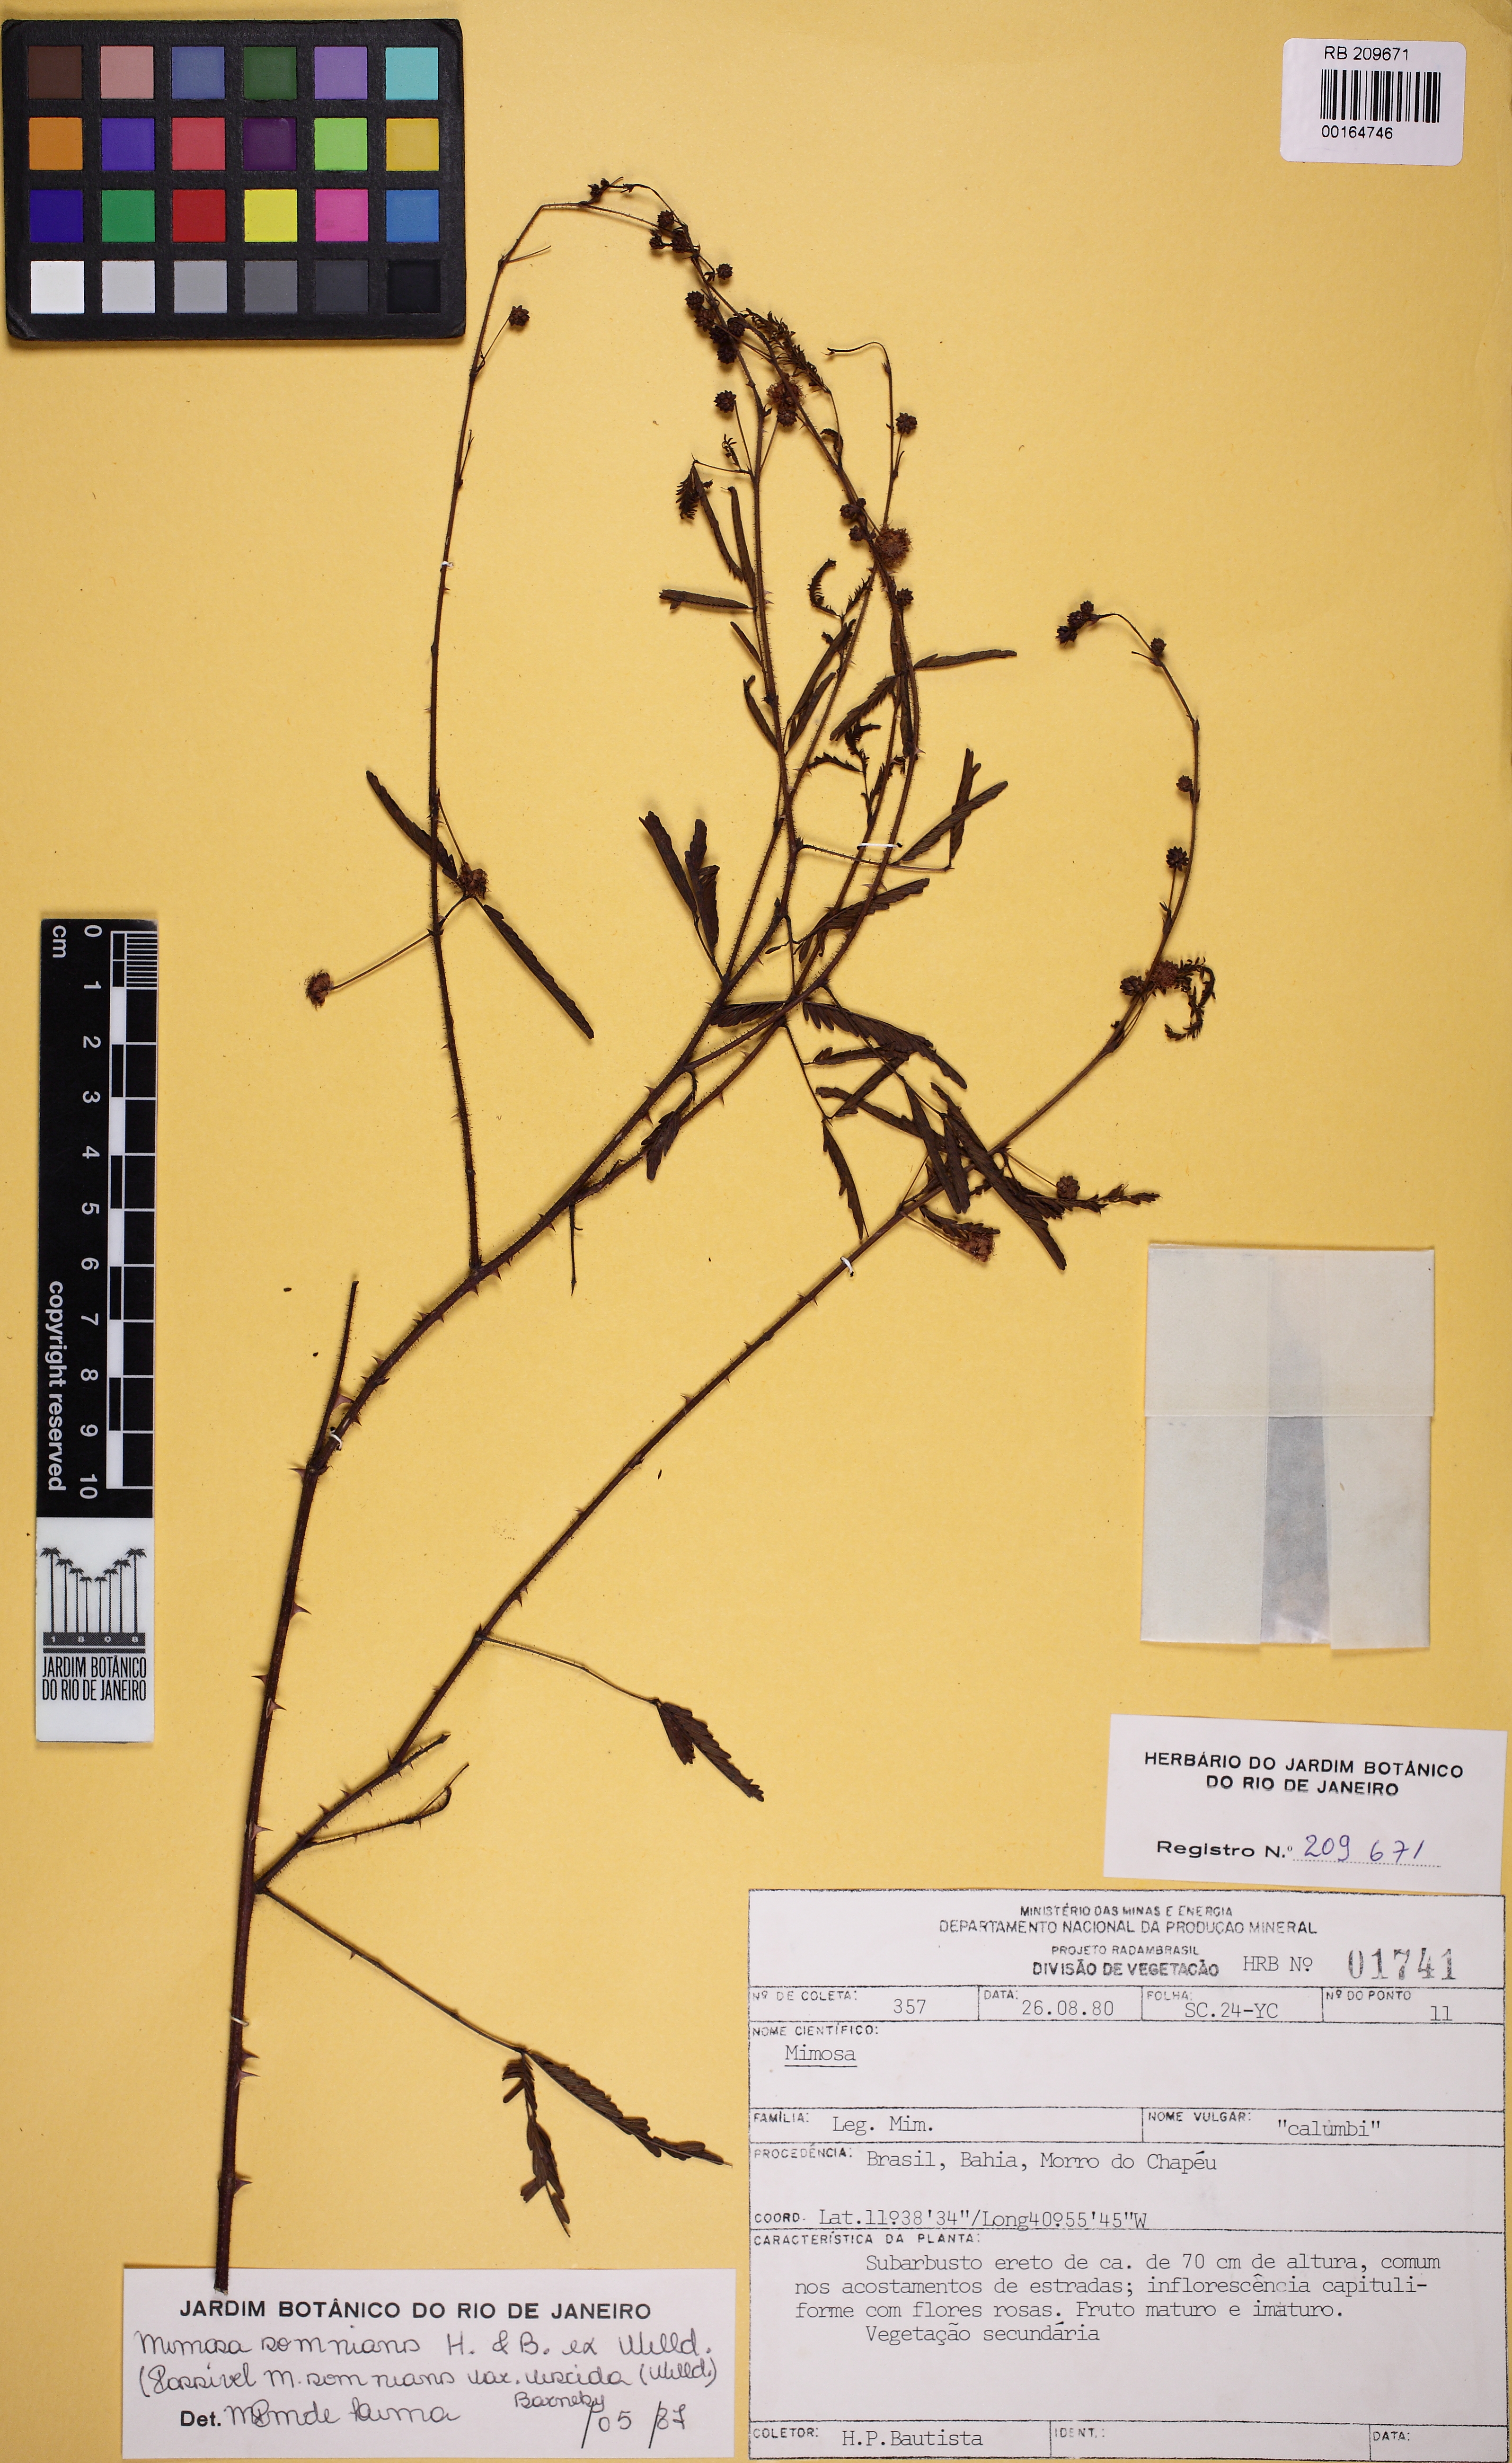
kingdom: Plantae
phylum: Tracheophyta
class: Magnoliopsida
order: Fabales
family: Fabaceae
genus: Mimosa
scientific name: Mimosa somnians
